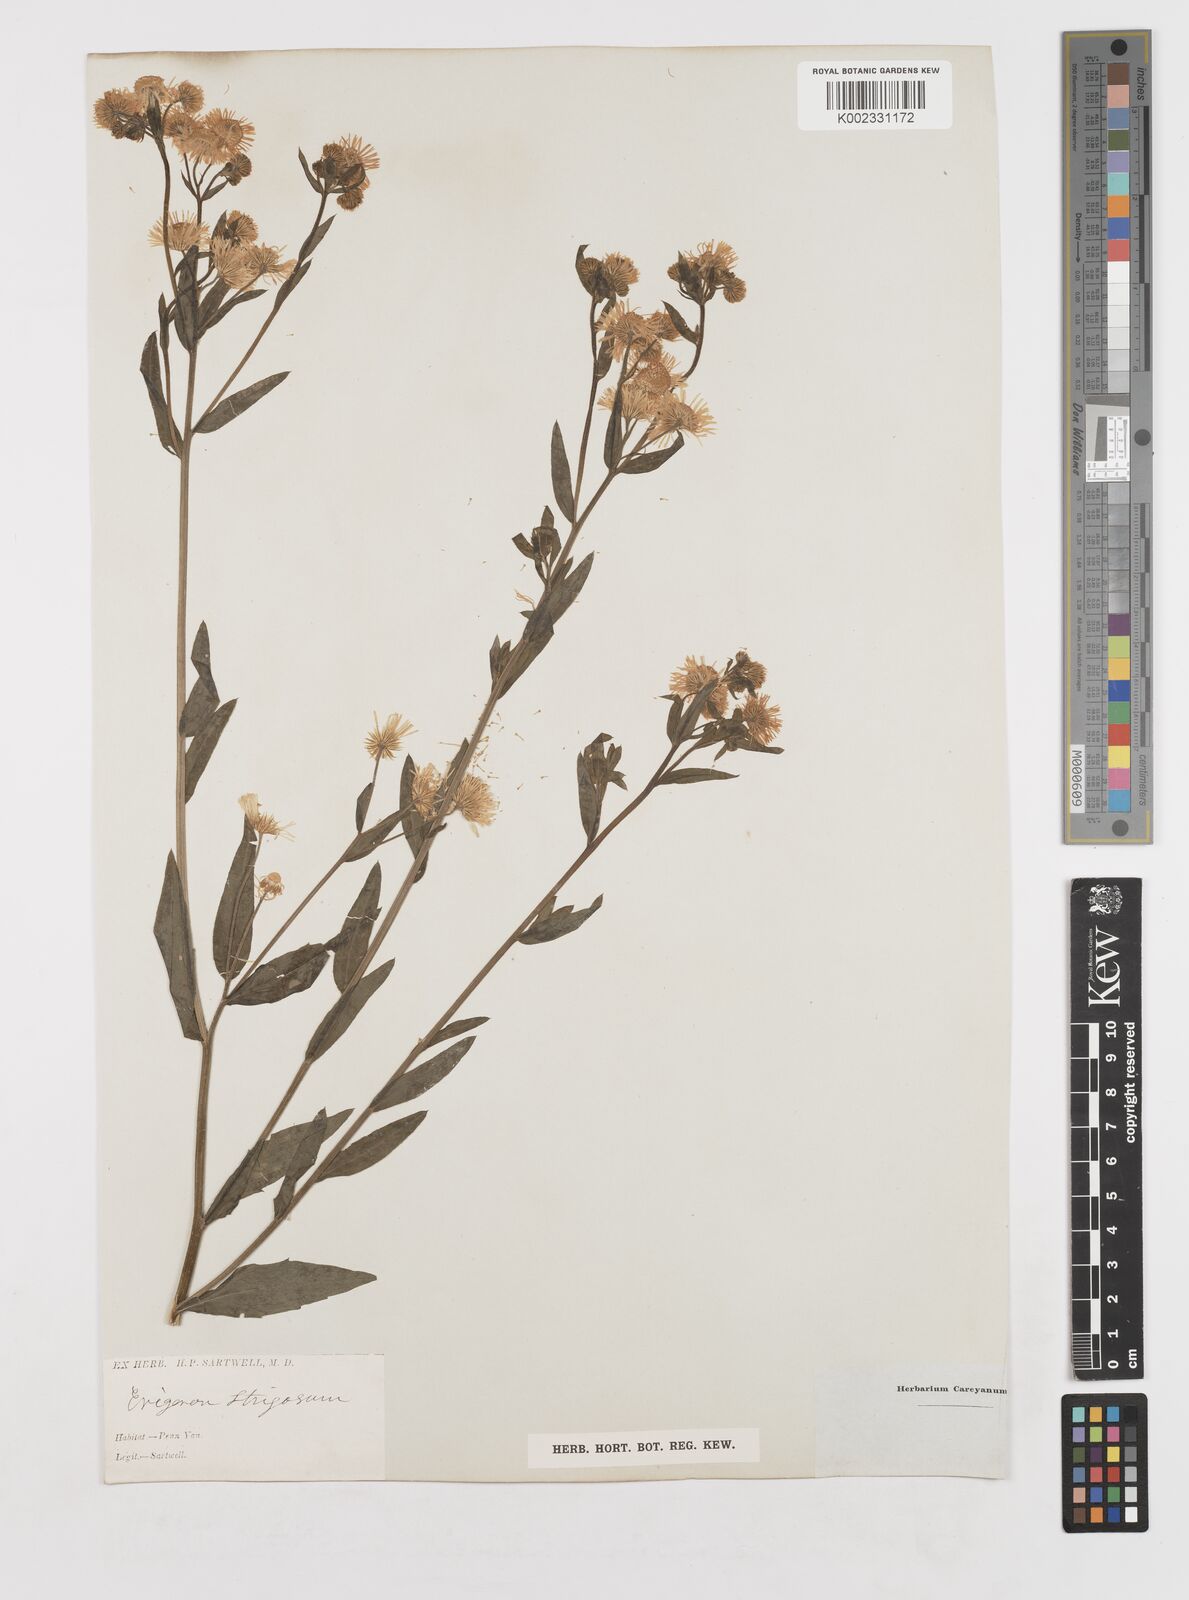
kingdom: Plantae
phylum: Tracheophyta
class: Magnoliopsida
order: Asterales
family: Asteraceae
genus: Erigeron
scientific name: Erigeron
